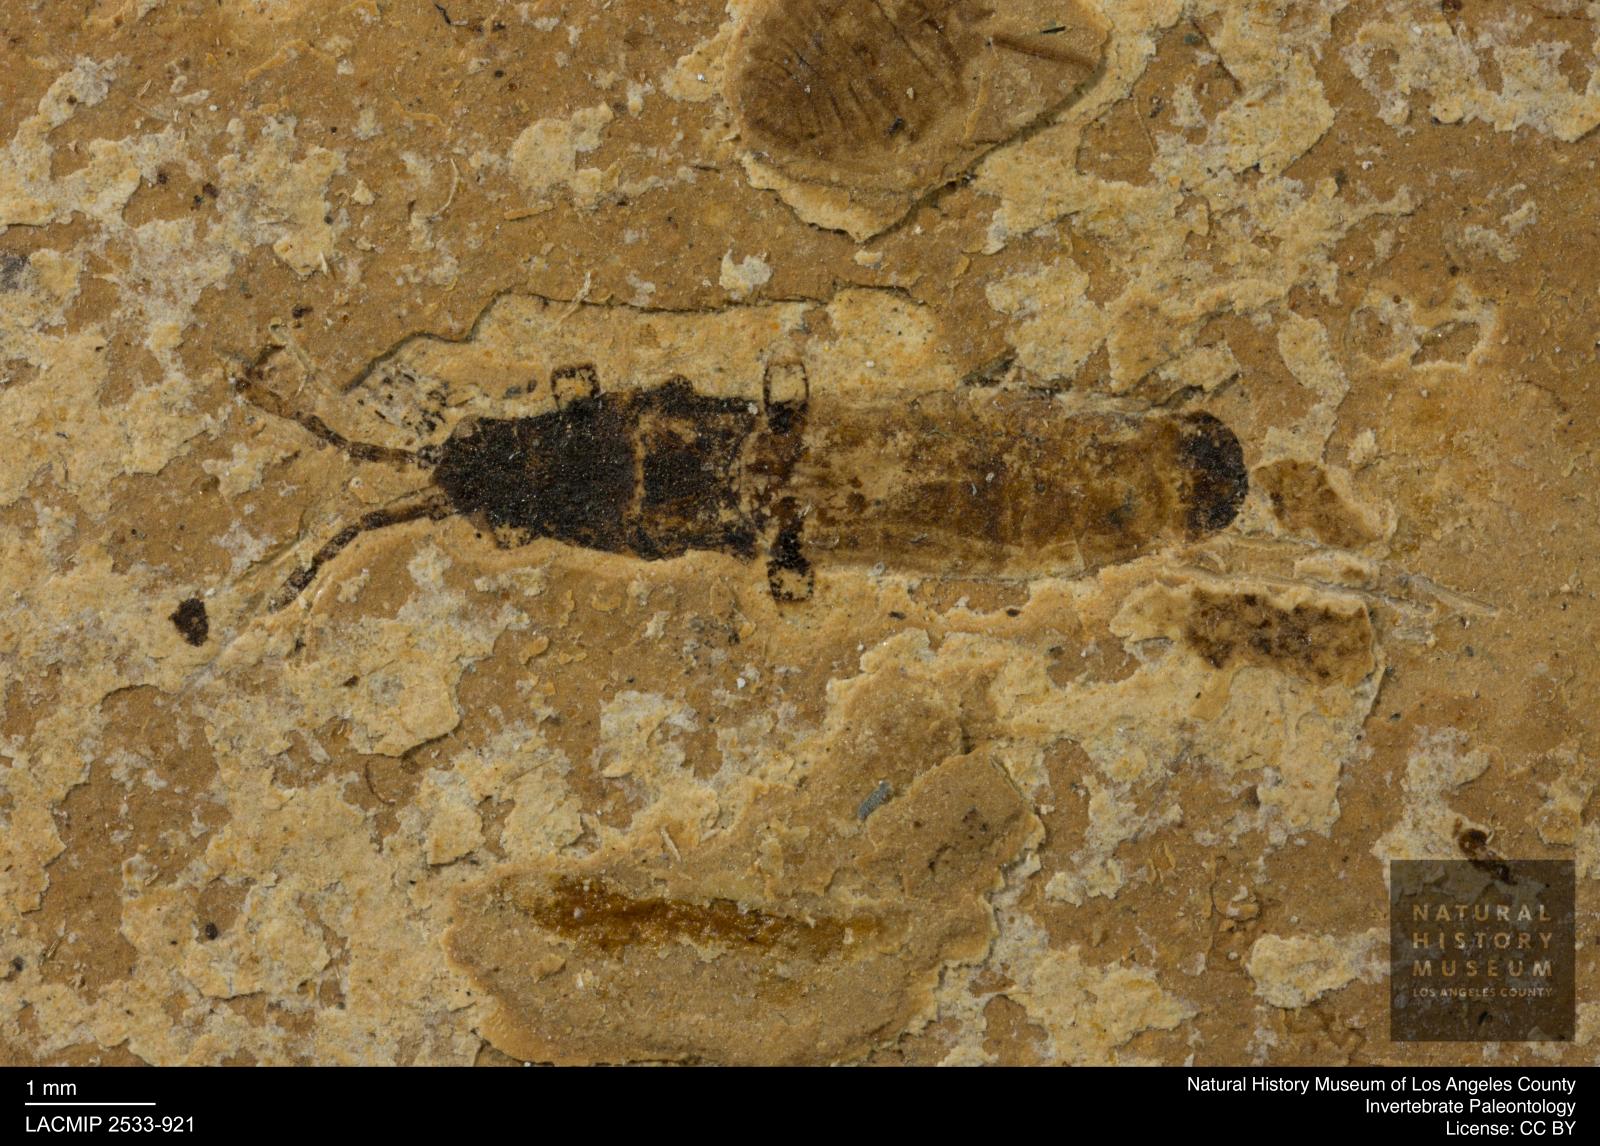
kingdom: Animalia
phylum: Arthropoda
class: Insecta
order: Hemiptera
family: Blissidae
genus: Ischnodemus
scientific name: Ischnodemus rottensis
